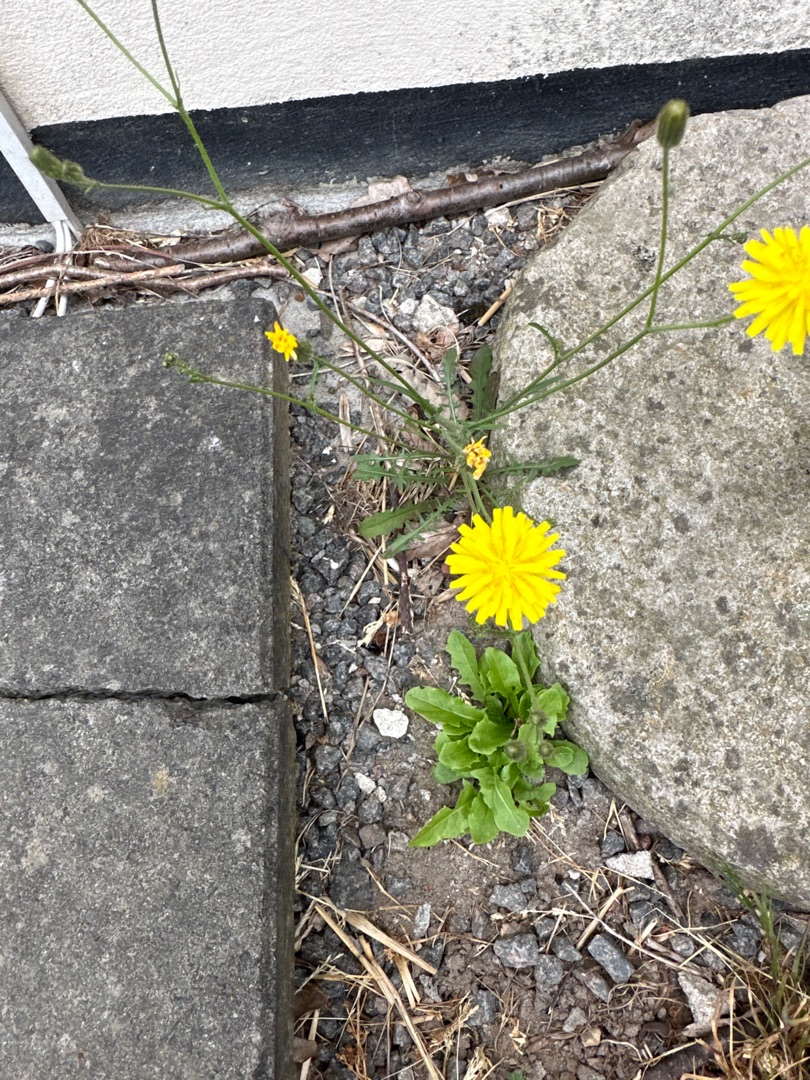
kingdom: Plantae
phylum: Tracheophyta
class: Magnoliopsida
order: Asterales
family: Asteraceae
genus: Crepis
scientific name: Crepis capillaris
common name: Grøn høgeskæg
